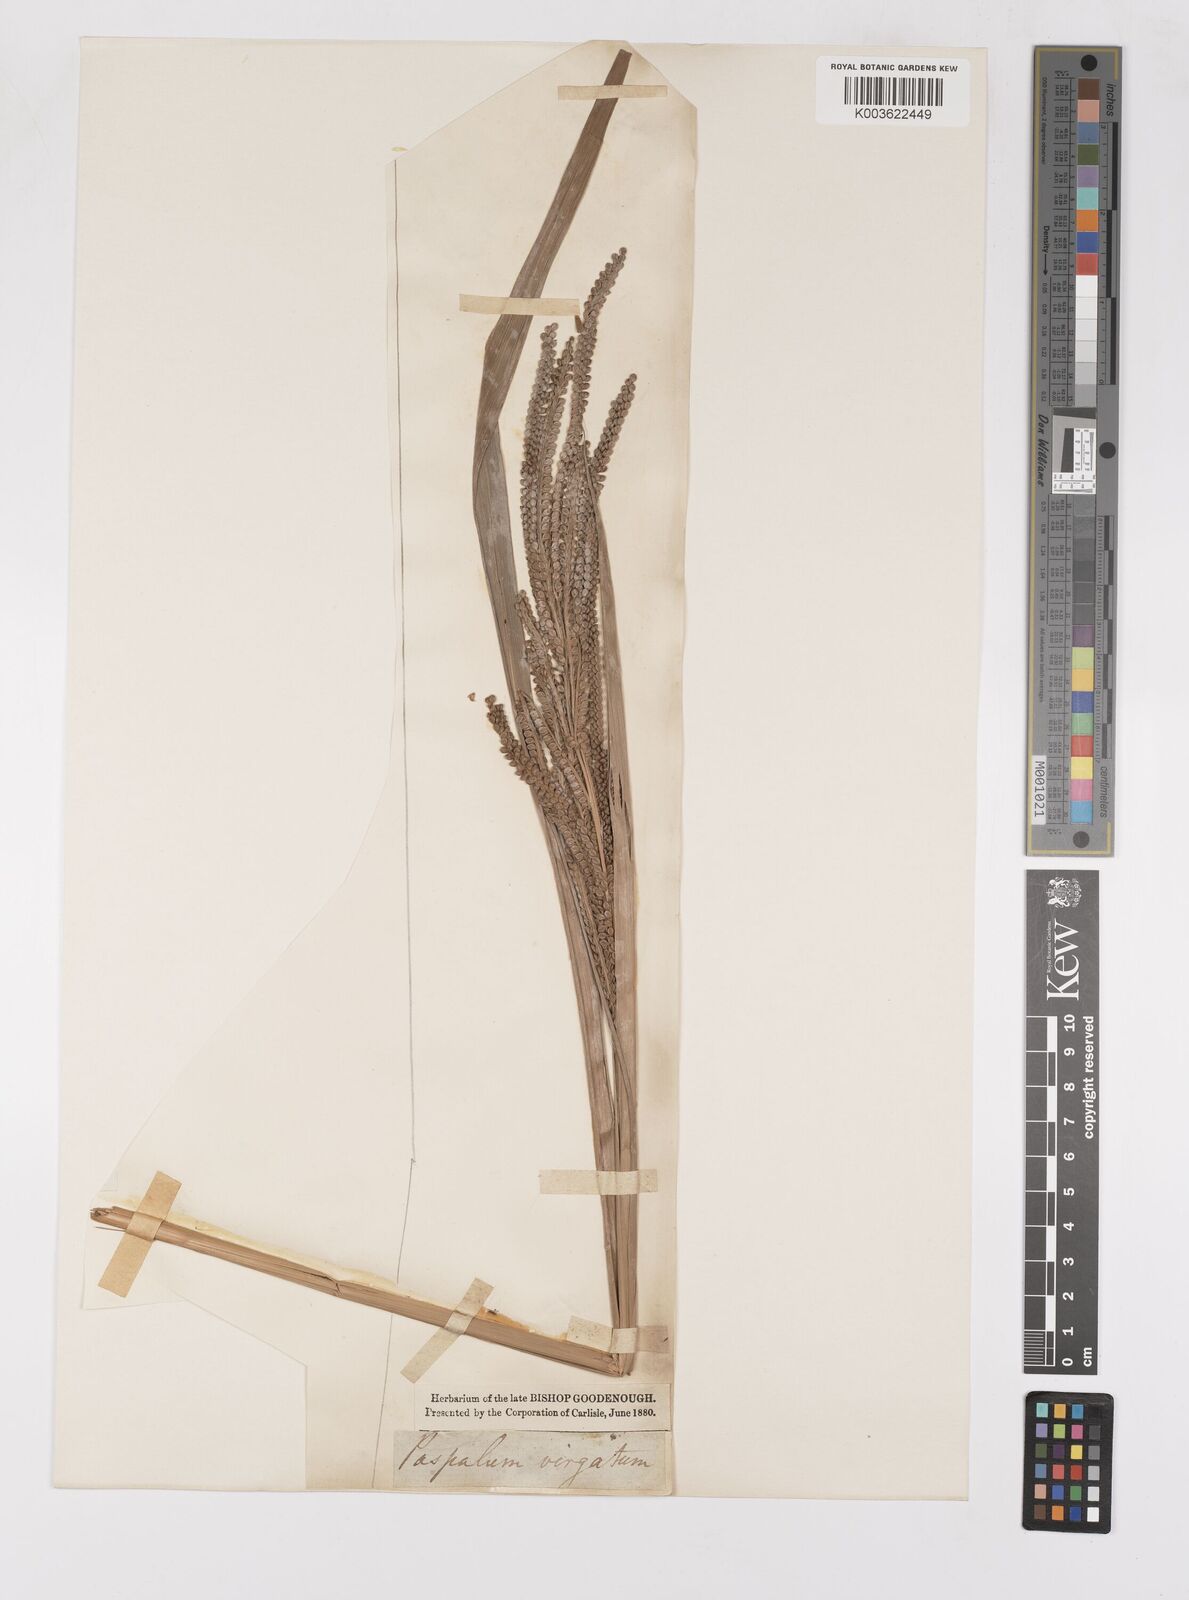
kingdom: Plantae
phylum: Tracheophyta
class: Liliopsida
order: Poales
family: Poaceae
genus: Paspalum
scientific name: Paspalum virgatum
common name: Talquezal
